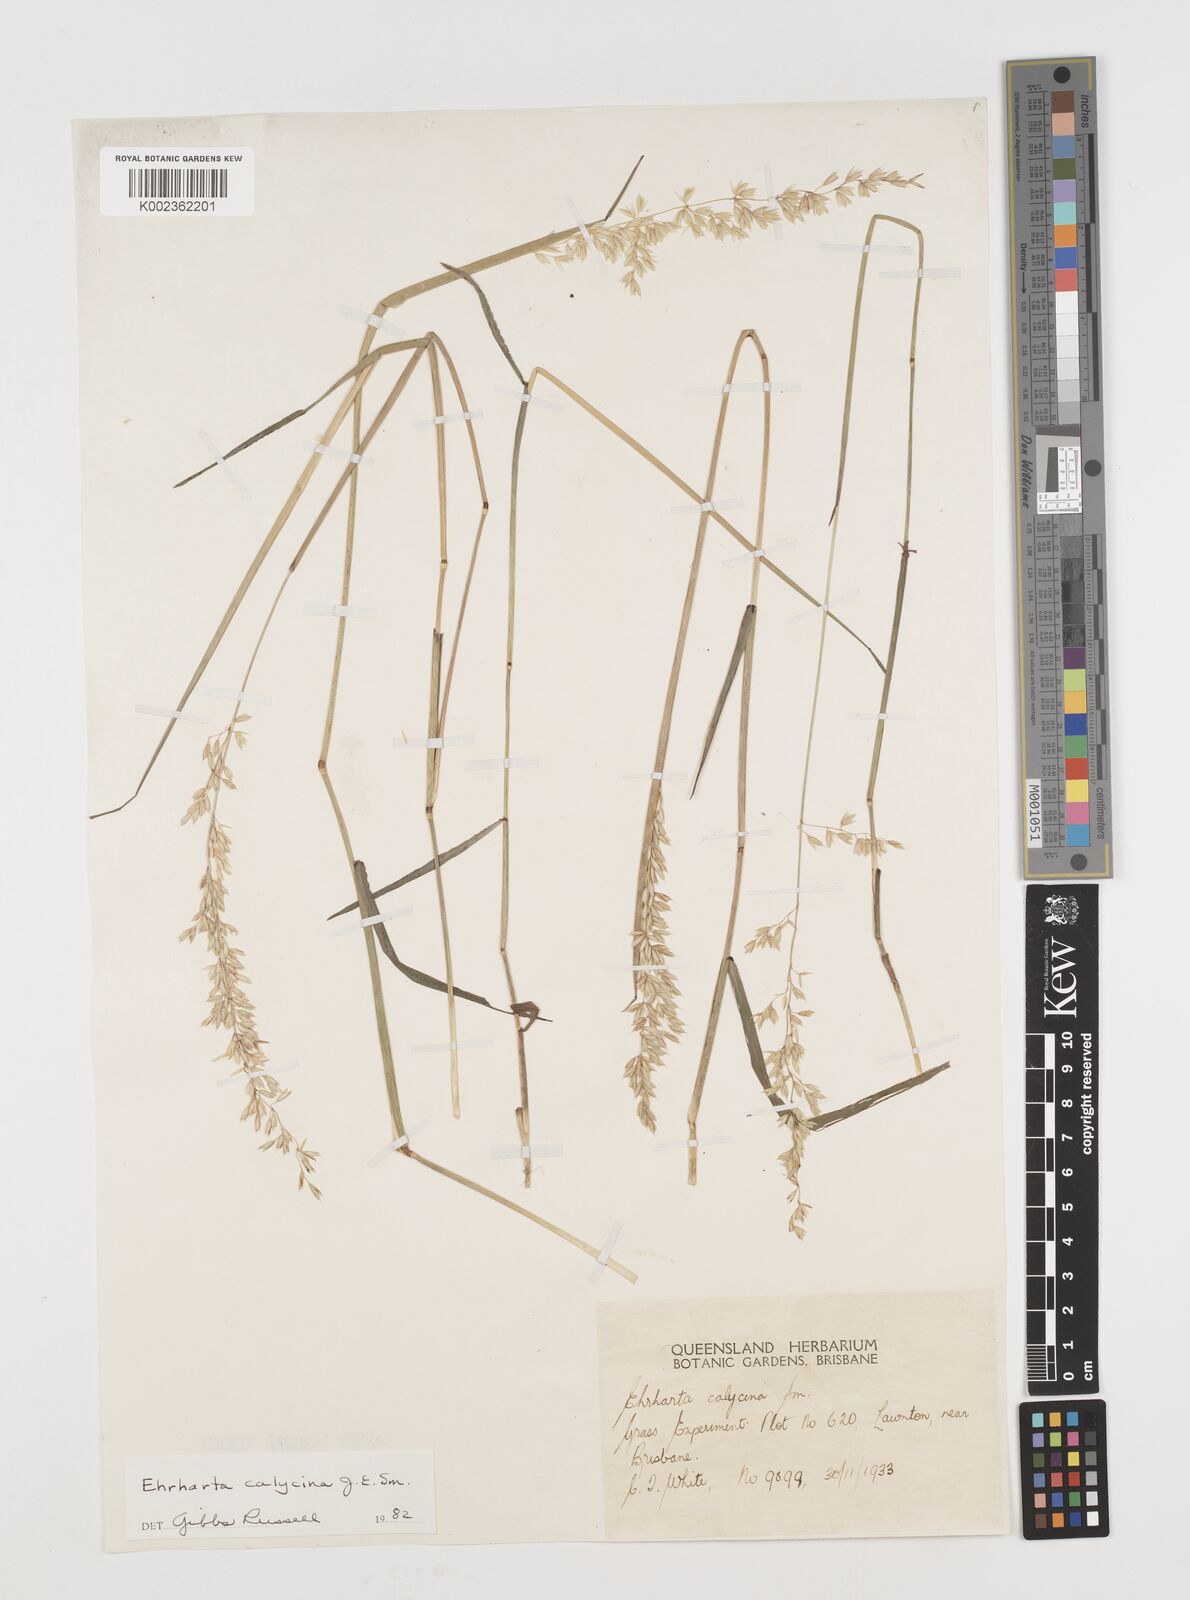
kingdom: Plantae
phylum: Tracheophyta
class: Liliopsida
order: Poales
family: Poaceae
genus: Ehrharta
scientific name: Ehrharta calycina
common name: Perennial veldtgrass
